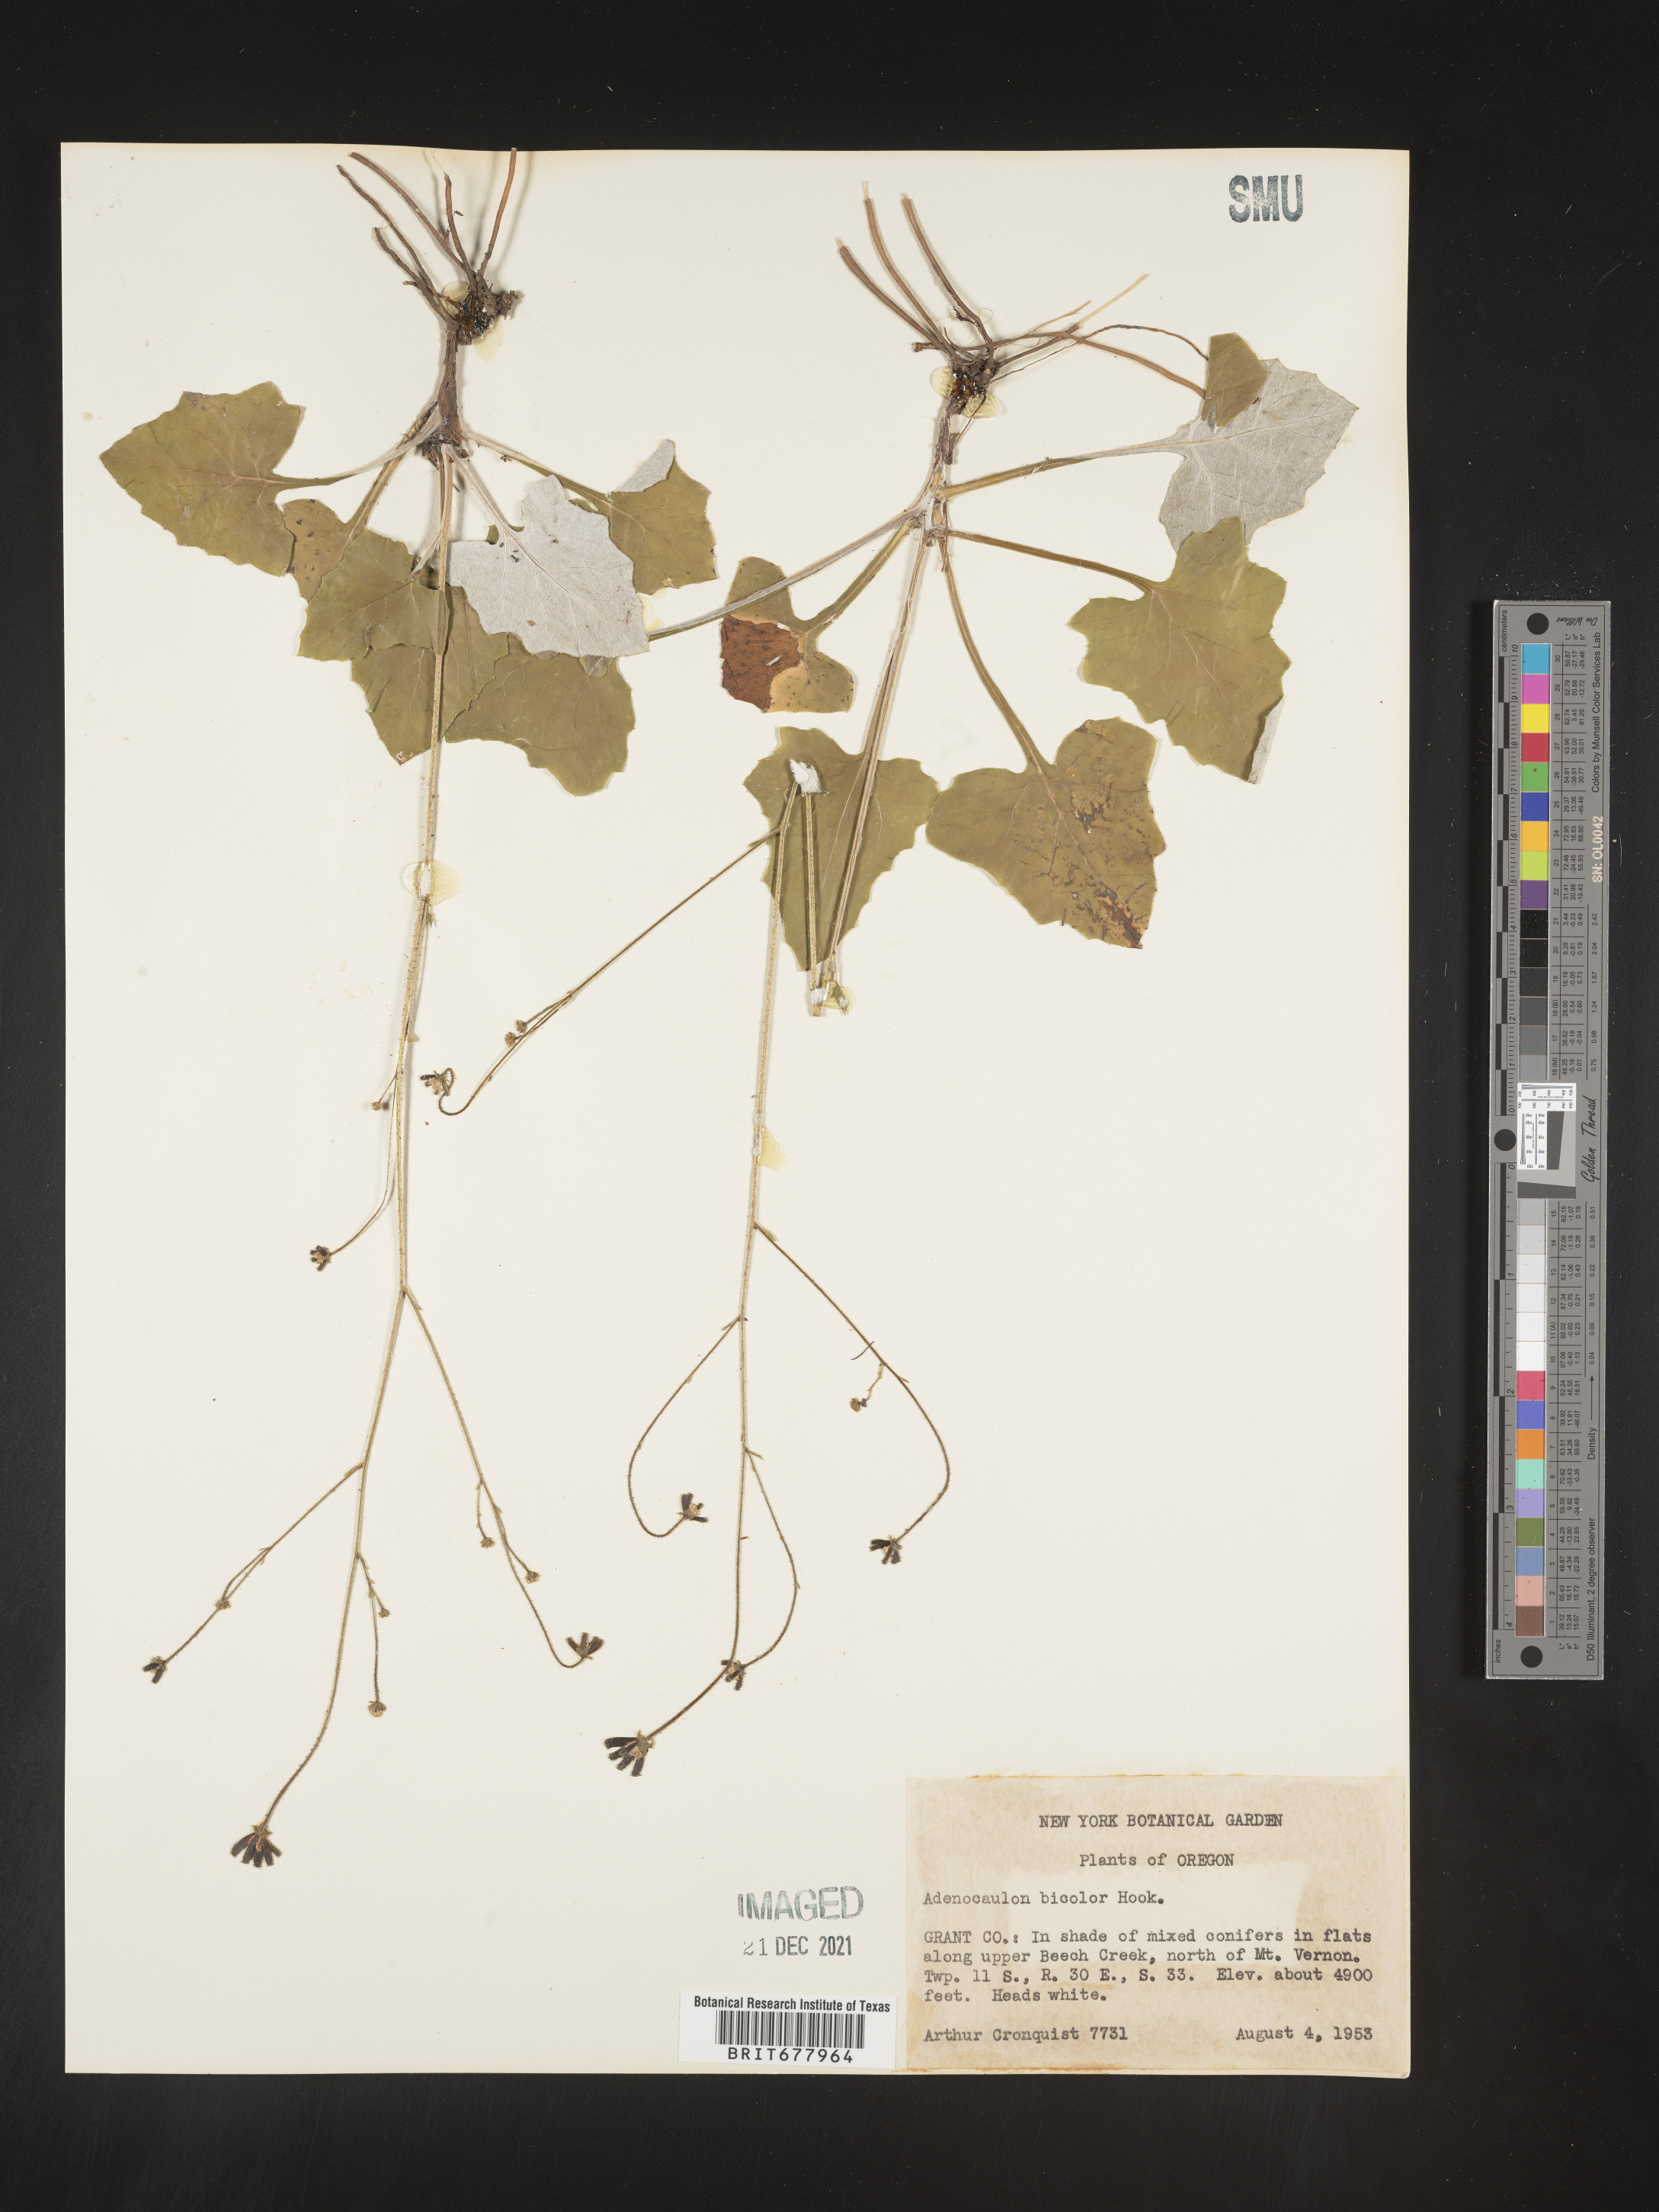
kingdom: Plantae
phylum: Tracheophyta
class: Magnoliopsida
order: Asterales
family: Asteraceae
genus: Adenocaulon
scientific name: Adenocaulon
